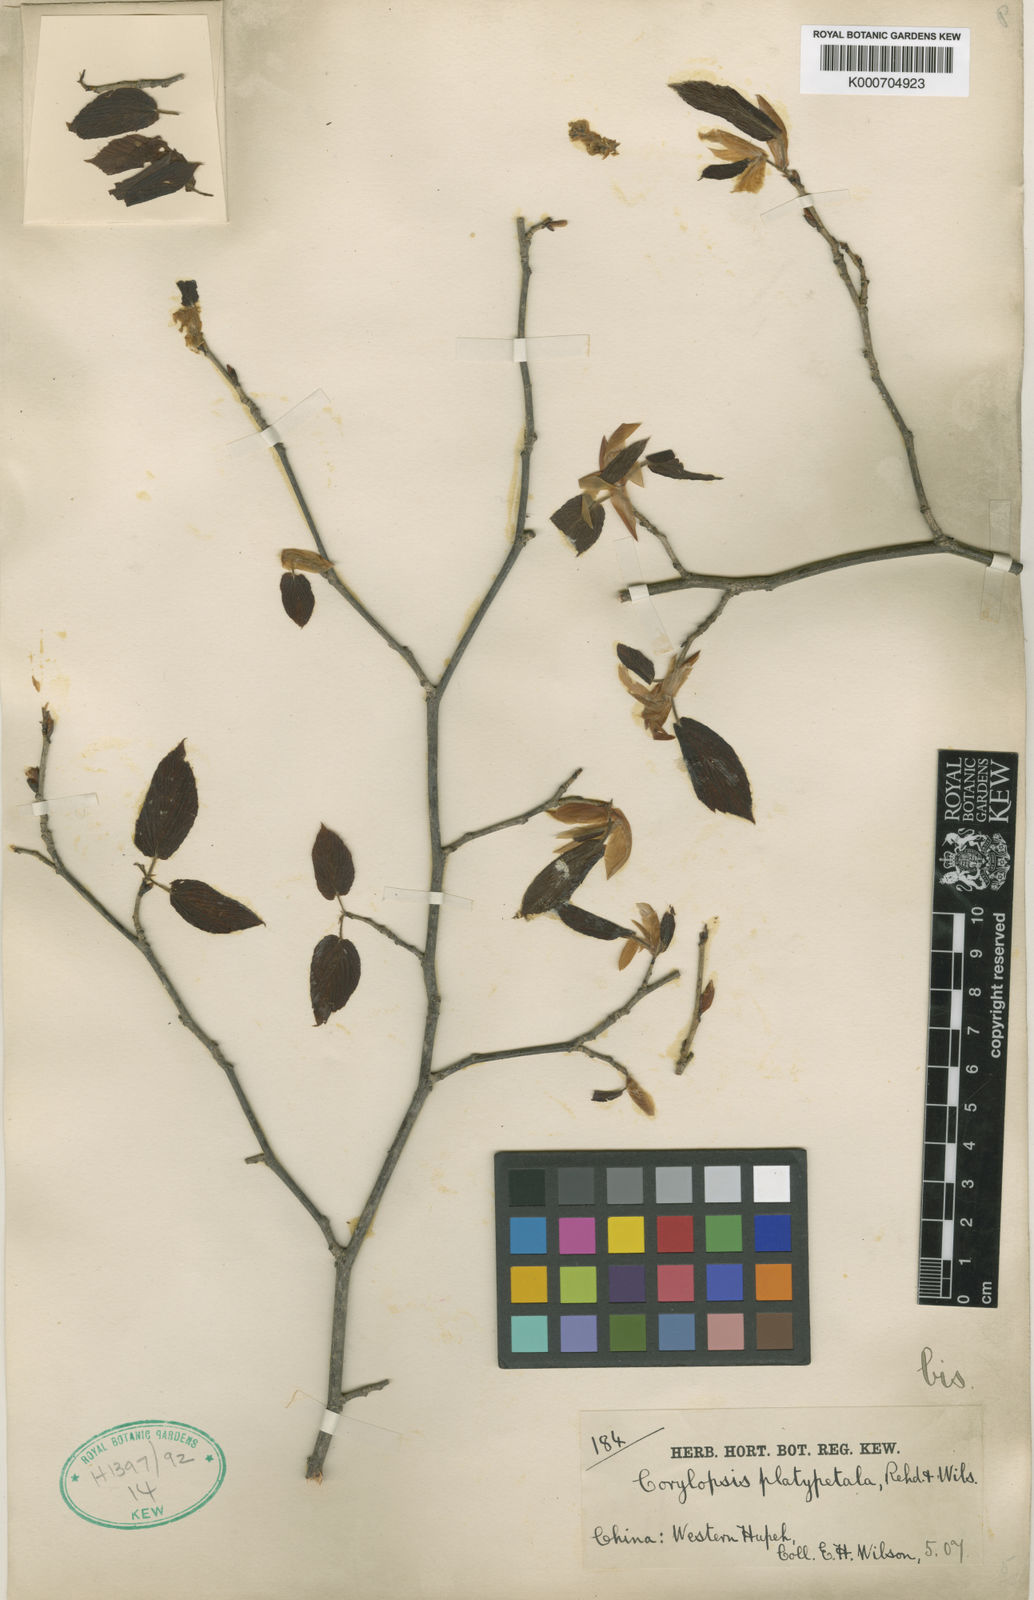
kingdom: Plantae
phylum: Tracheophyta
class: Magnoliopsida
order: Saxifragales
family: Hamamelidaceae
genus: Corylopsis
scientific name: Corylopsis sinensis
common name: Winter hazel
